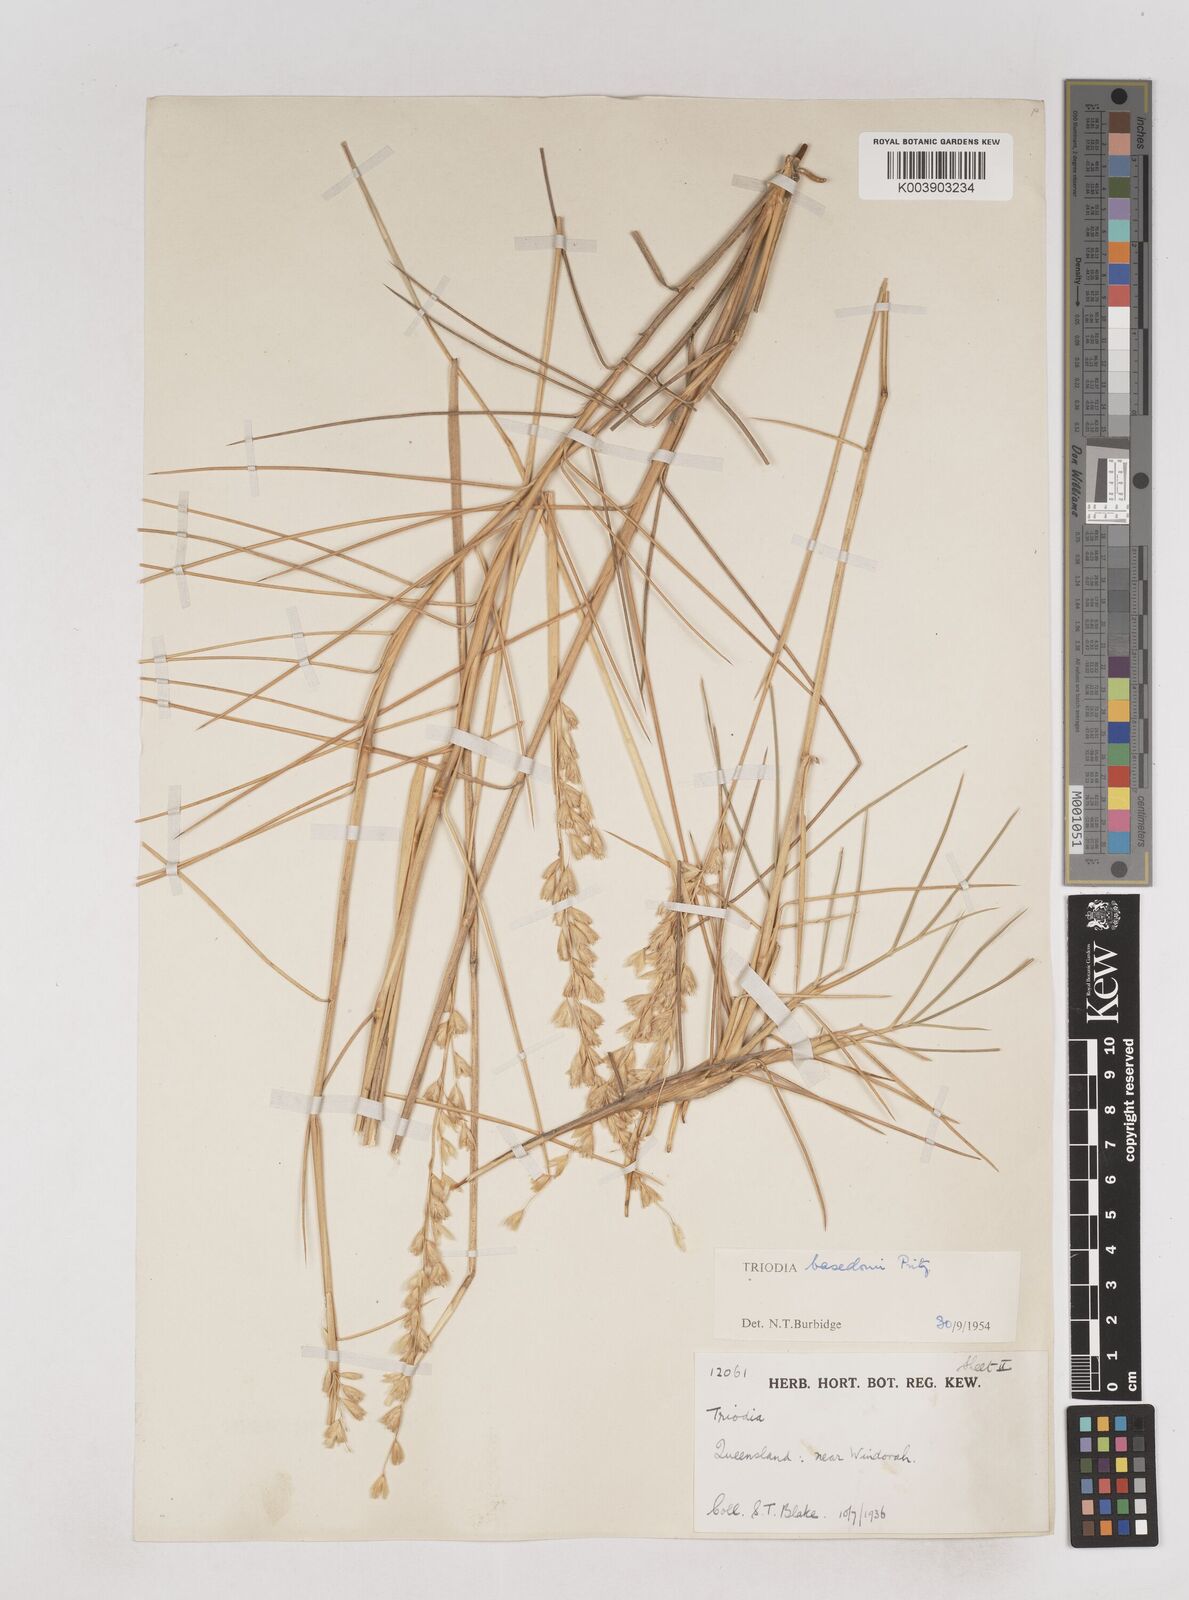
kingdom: Plantae
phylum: Tracheophyta
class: Liliopsida
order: Poales
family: Poaceae
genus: Triodia
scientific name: Triodia basedowii
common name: Hard spinifex
